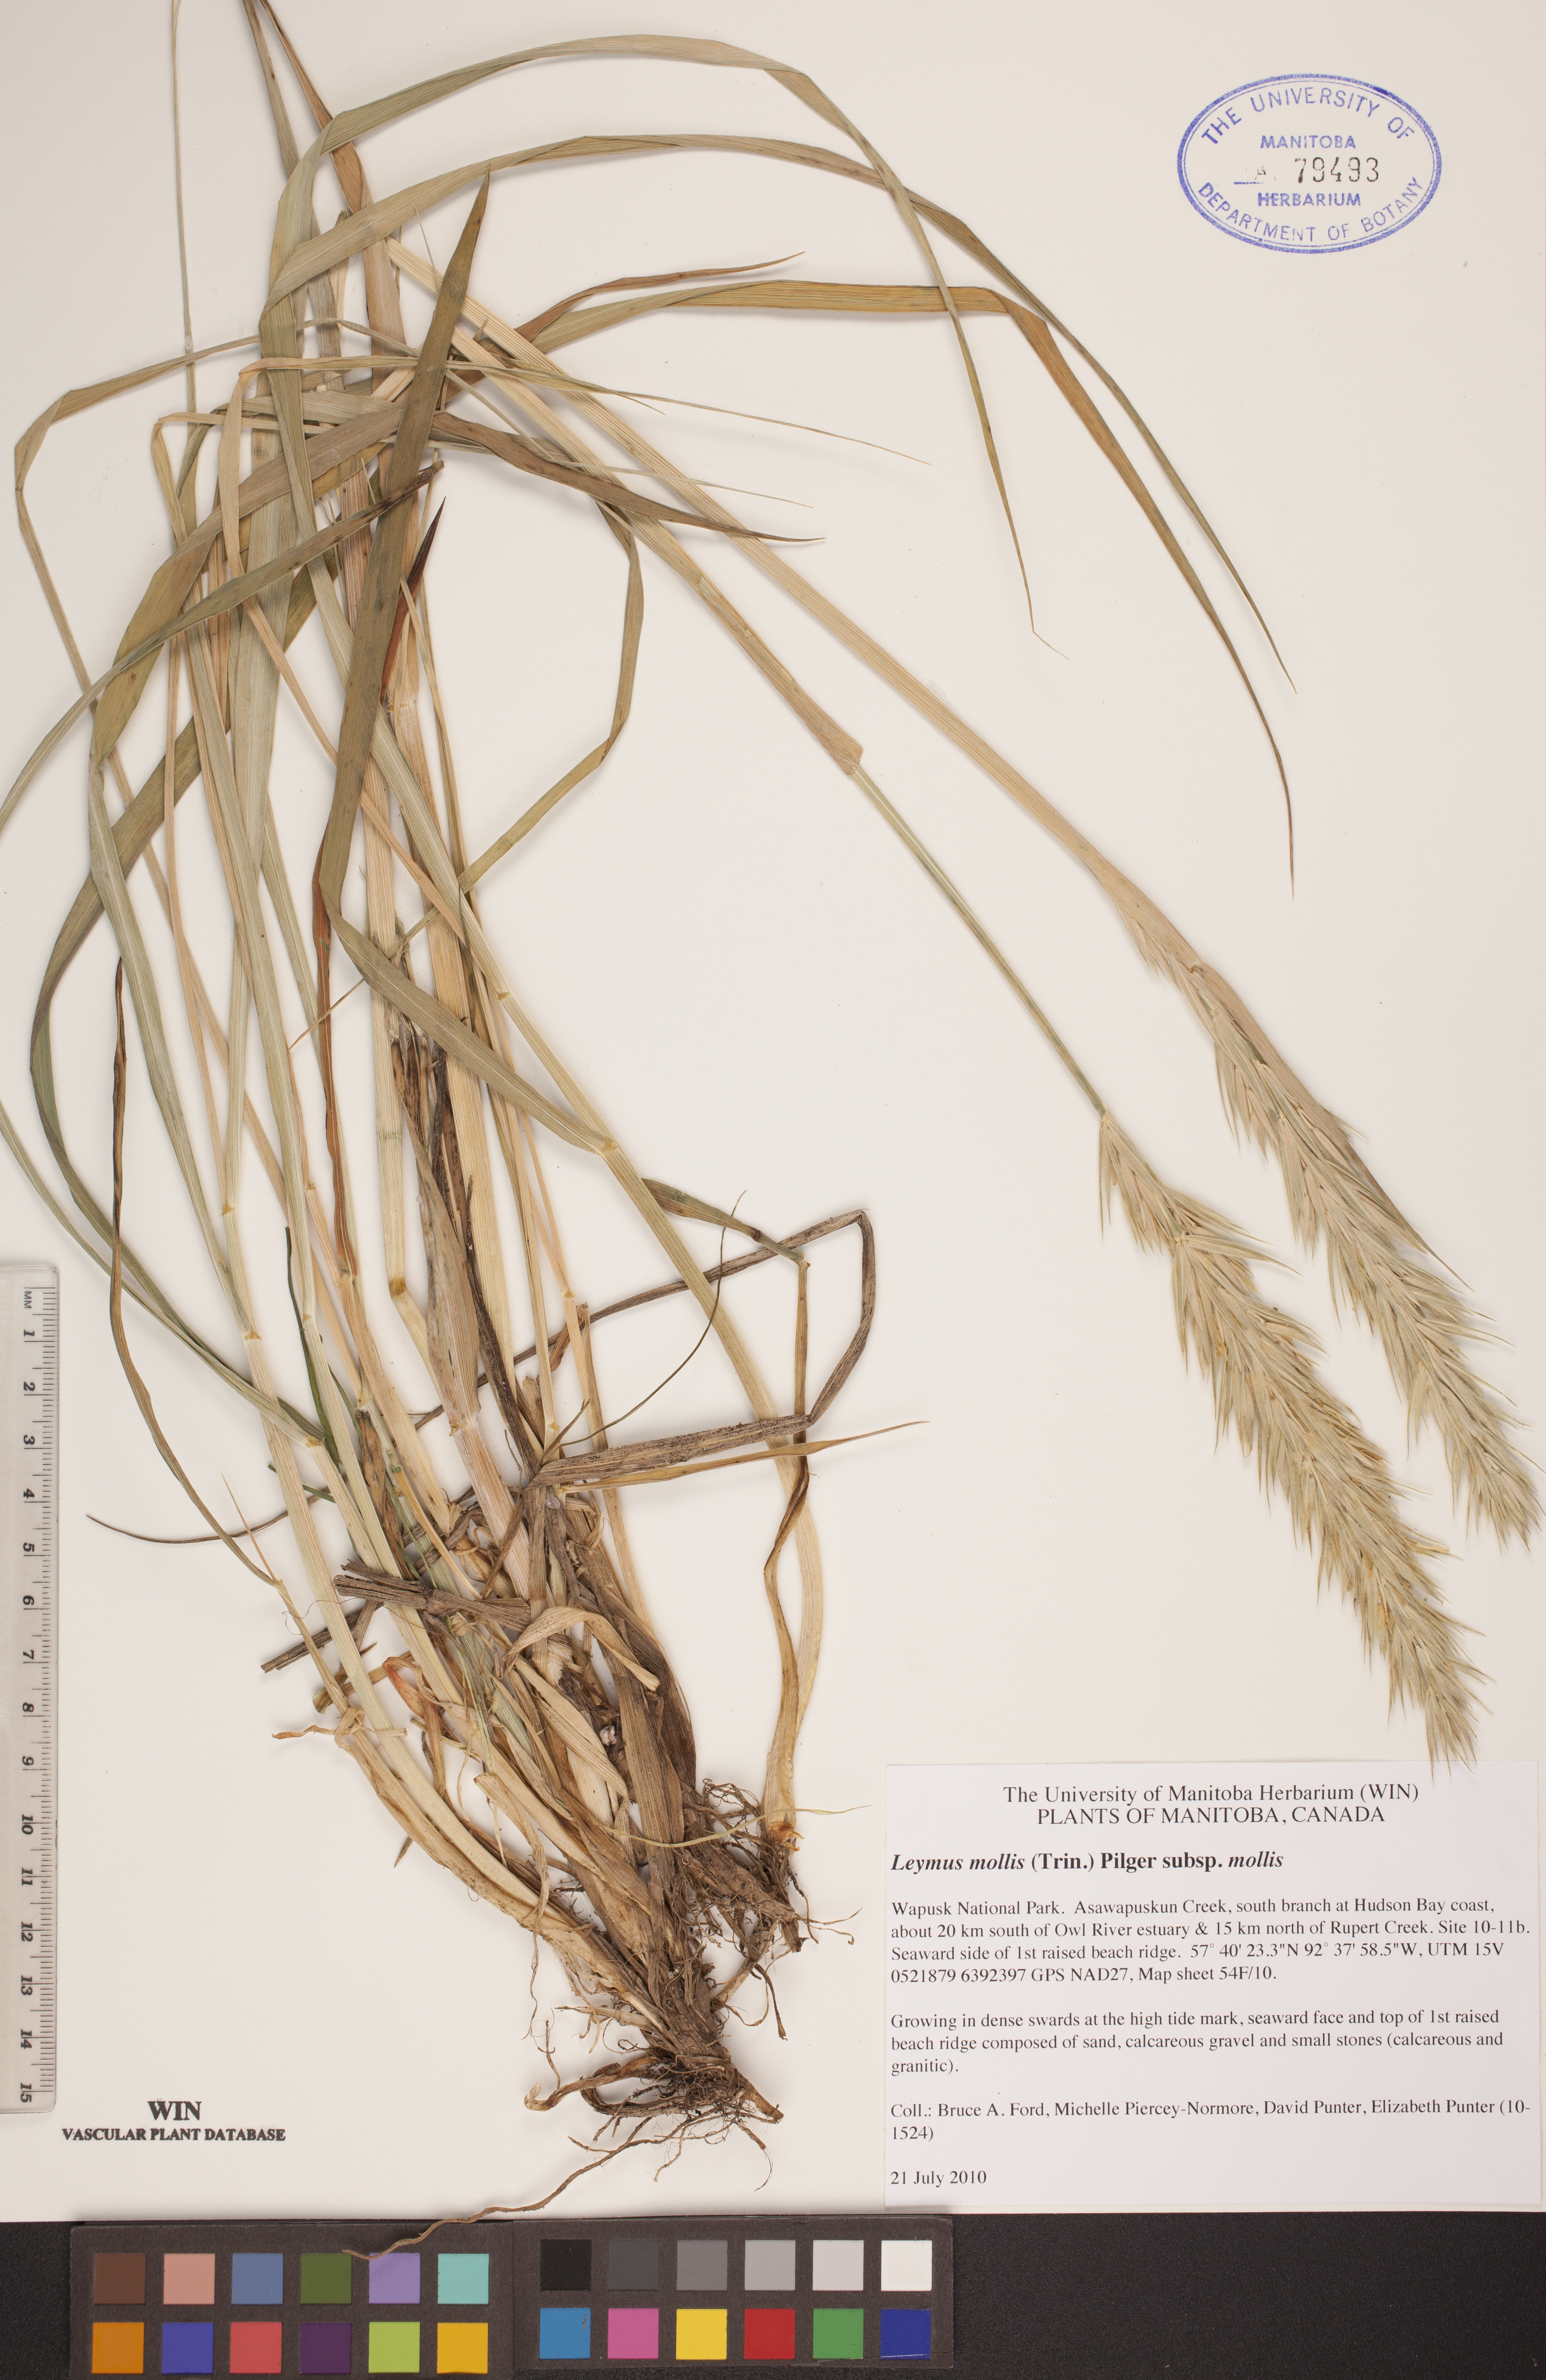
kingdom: Plantae
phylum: Tracheophyta
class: Liliopsida
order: Poales
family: Poaceae
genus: Leymus
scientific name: Leymus mollis
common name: American dune grass
